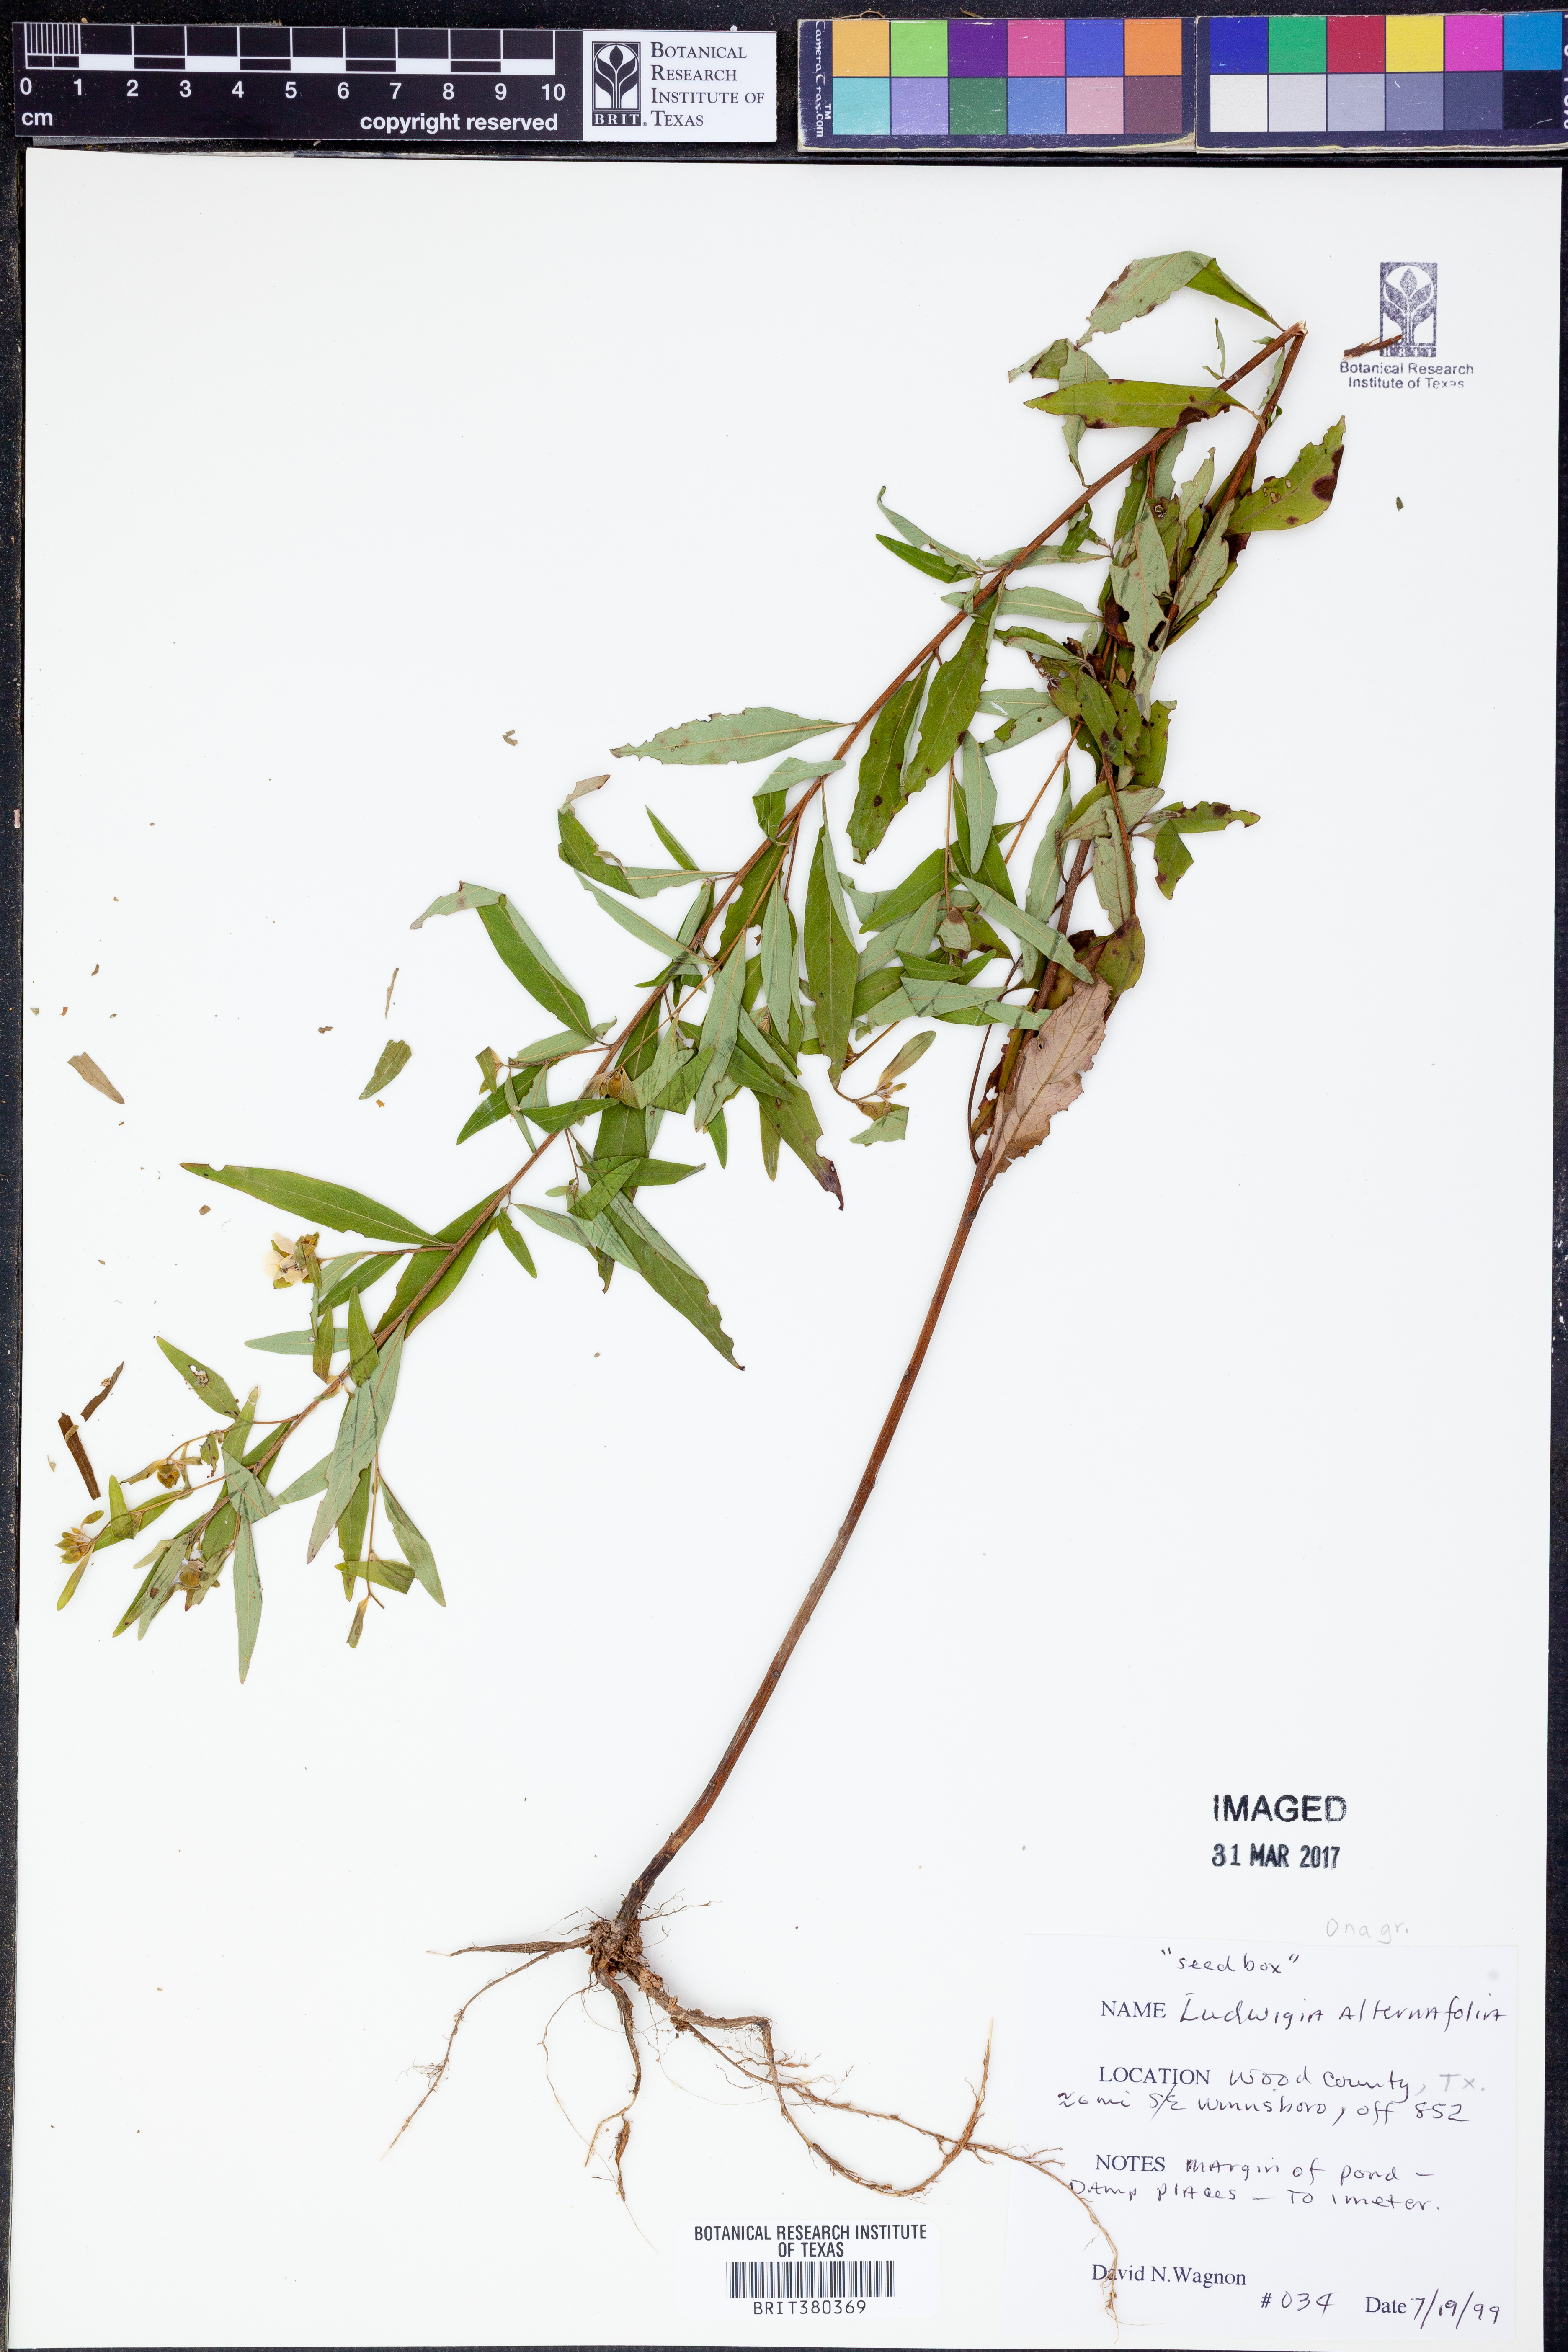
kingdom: Plantae
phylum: Tracheophyta
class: Magnoliopsida
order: Myrtales
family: Onagraceae
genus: Ludwigia
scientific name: Ludwigia alternifolia
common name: Rattlebox
